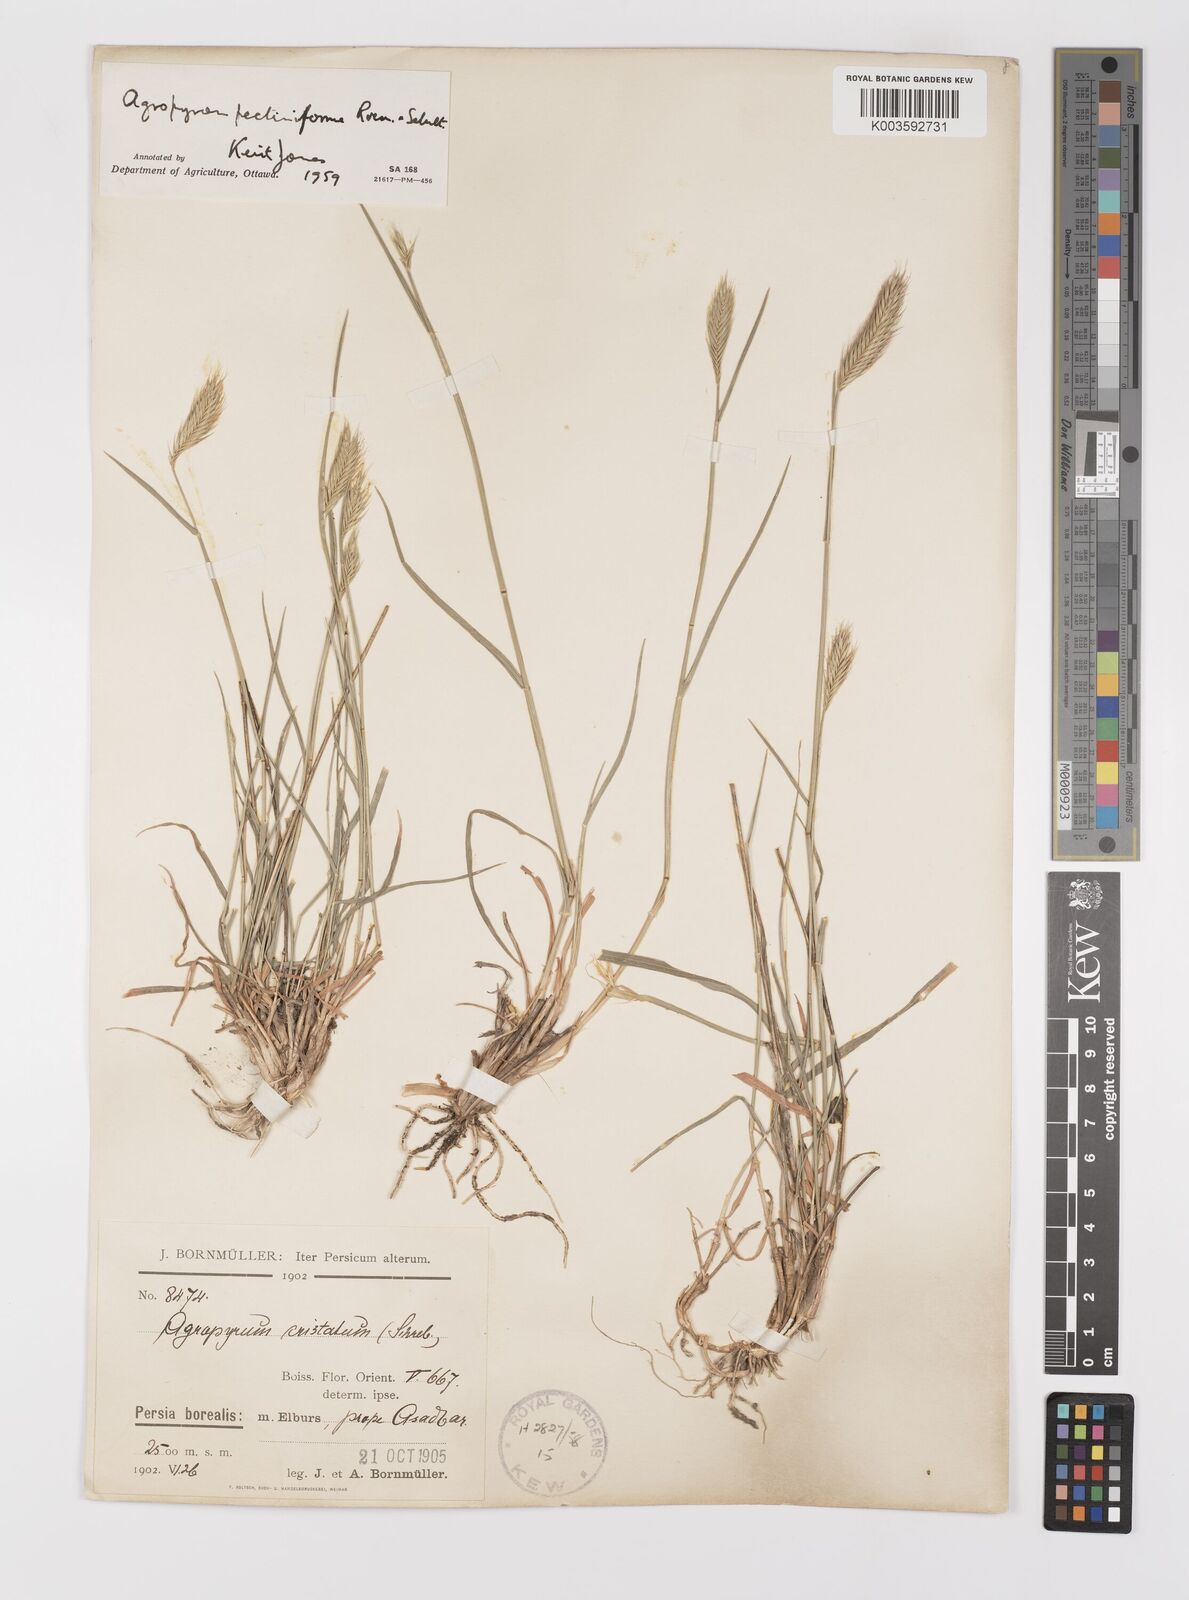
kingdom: Plantae
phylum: Tracheophyta
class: Liliopsida
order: Poales
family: Poaceae
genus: Agropyron
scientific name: Agropyron cristatum
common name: Crested wheatgrass
